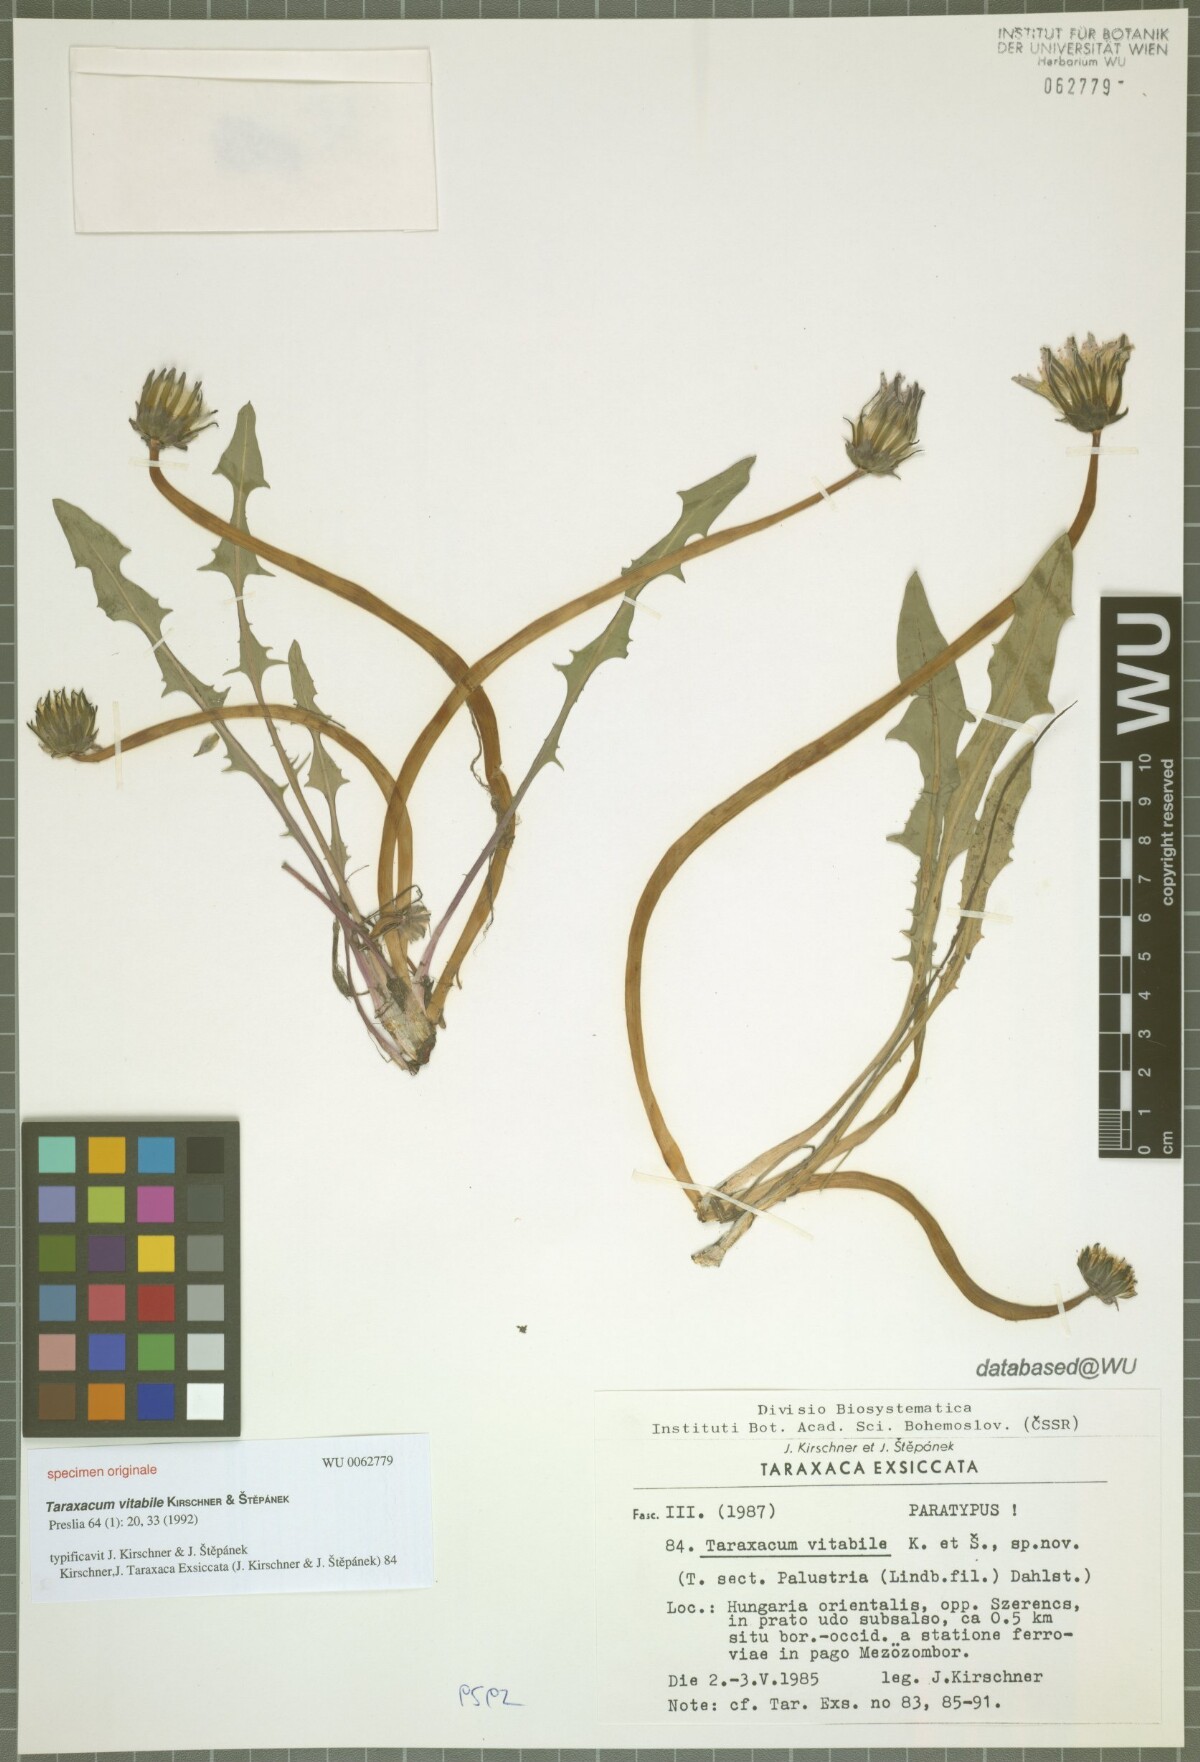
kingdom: Plantae
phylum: Tracheophyta
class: Magnoliopsida
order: Asterales
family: Asteraceae
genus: Taraxacum
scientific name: Taraxacum vindobonense
